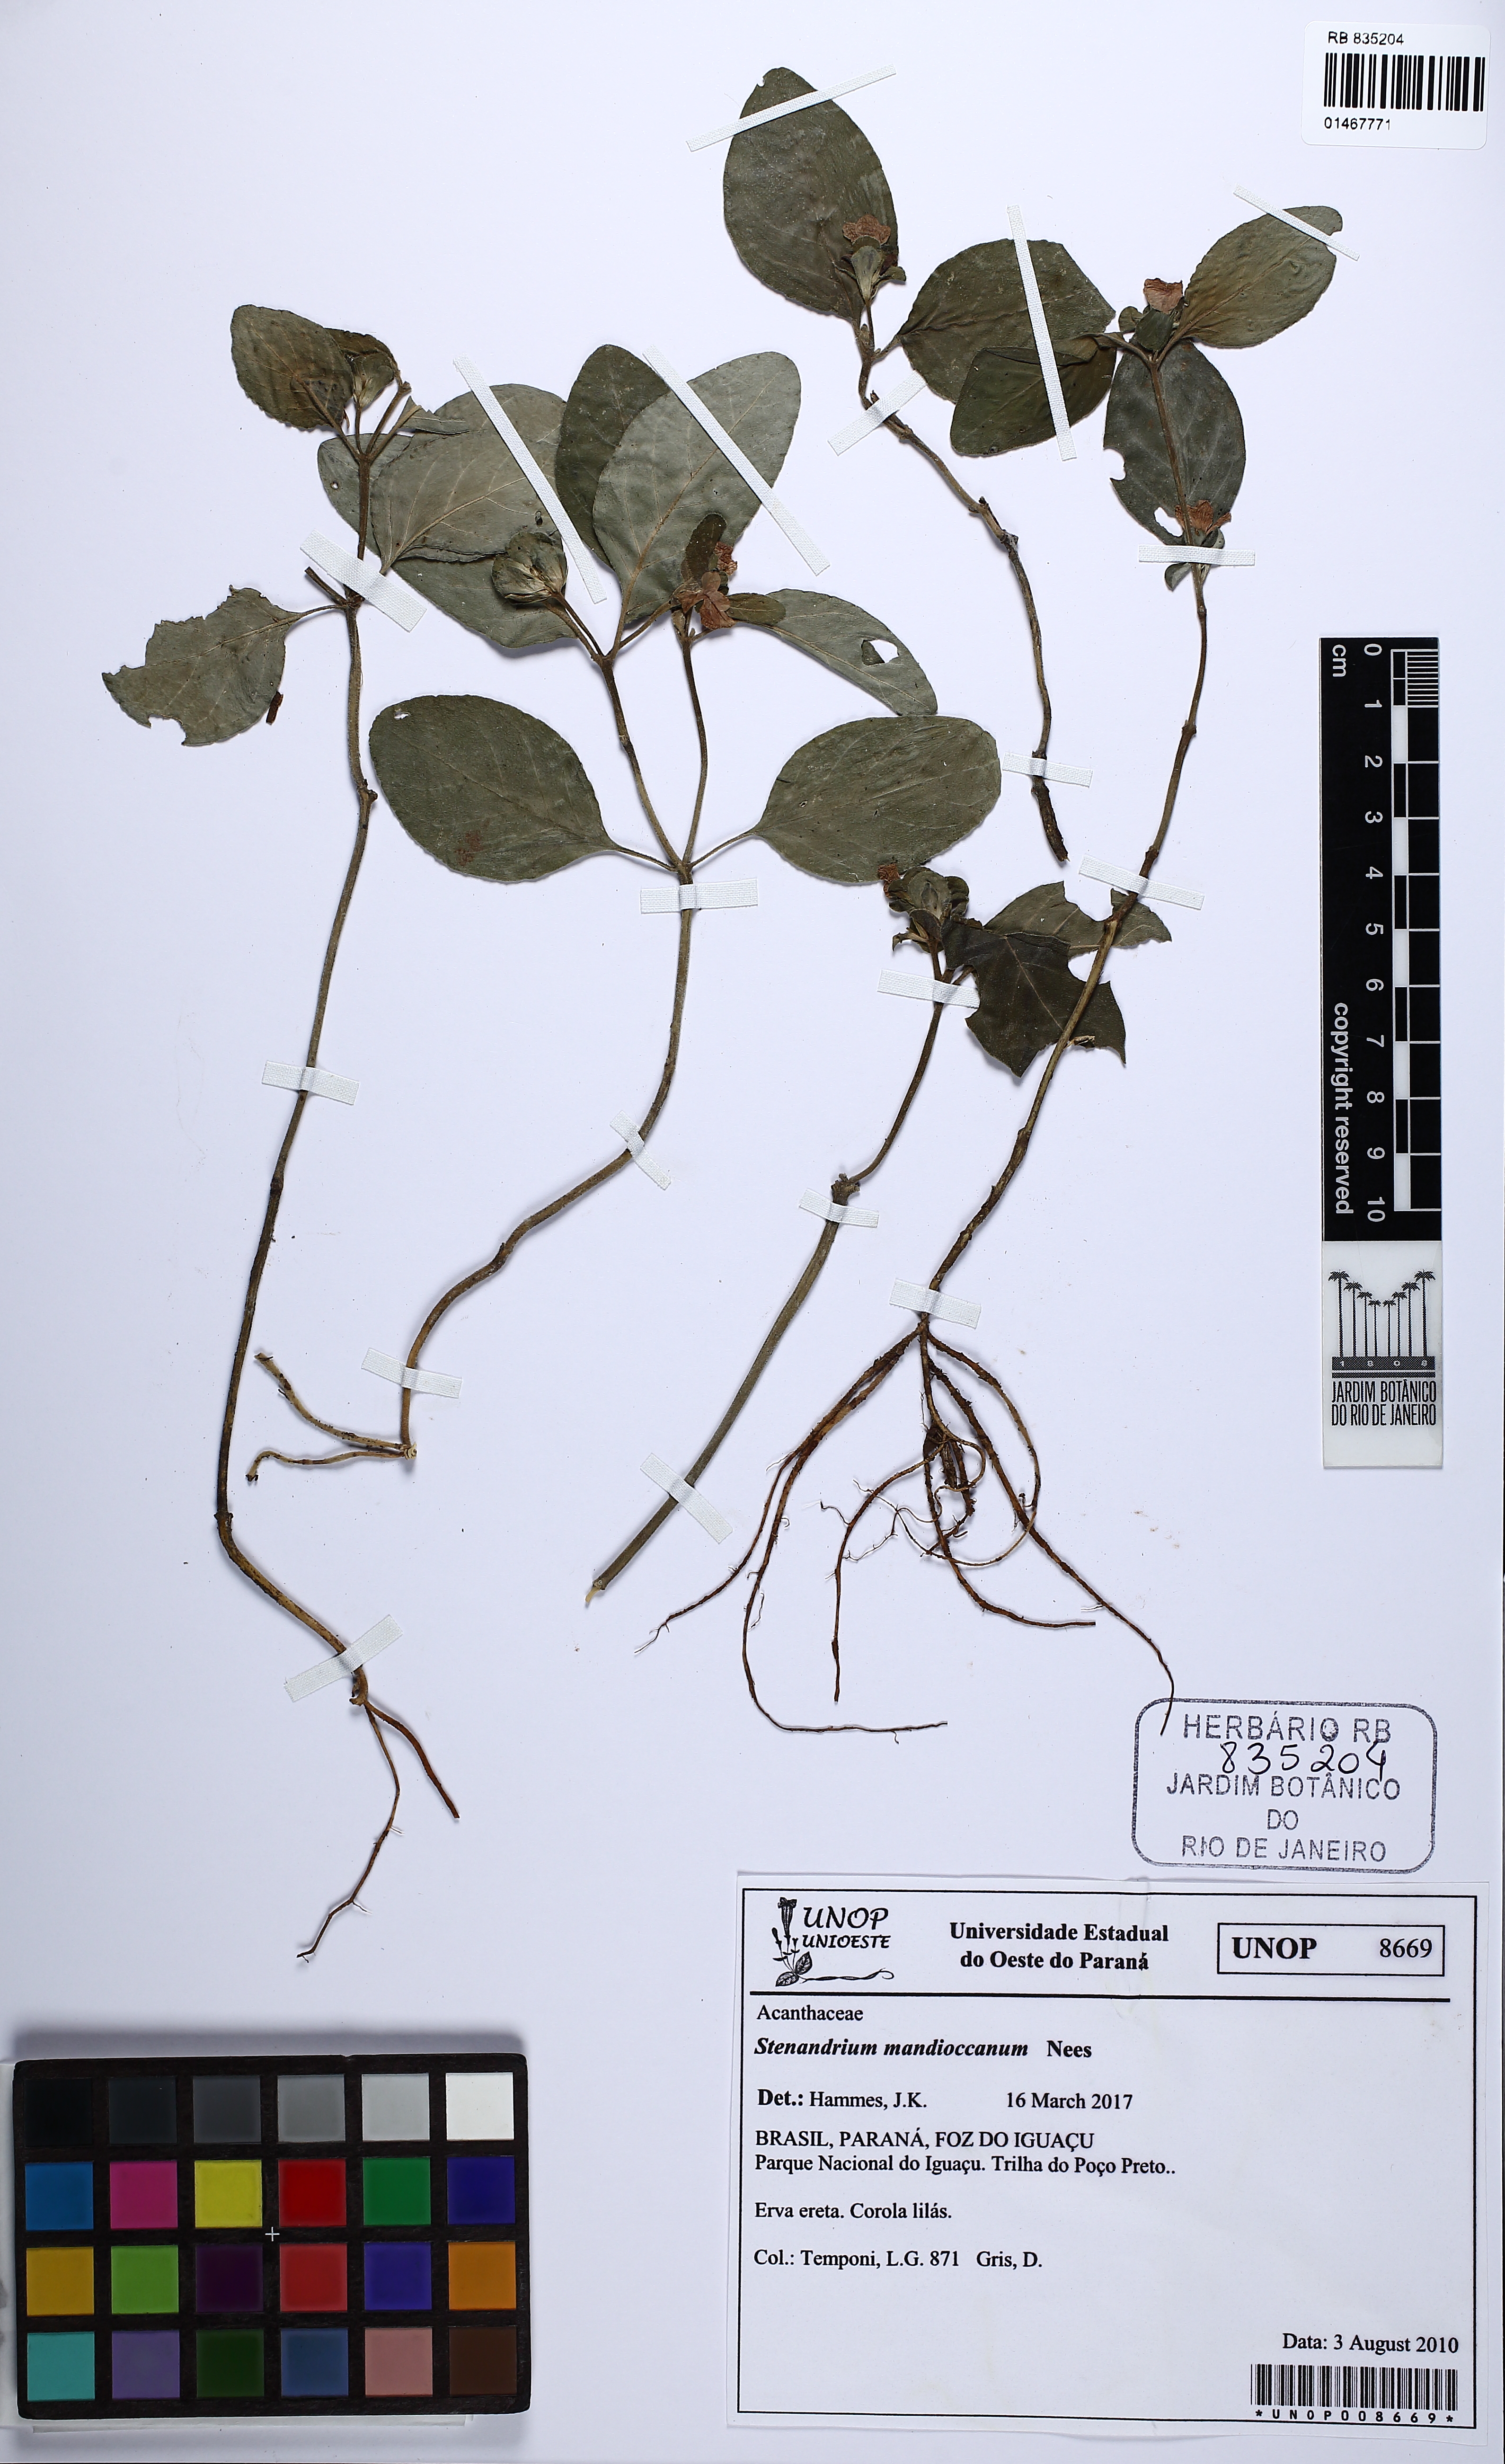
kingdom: Plantae
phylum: Tracheophyta
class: Magnoliopsida
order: Lamiales
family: Acanthaceae
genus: Stenandrium
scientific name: Stenandrium mandioccanum
